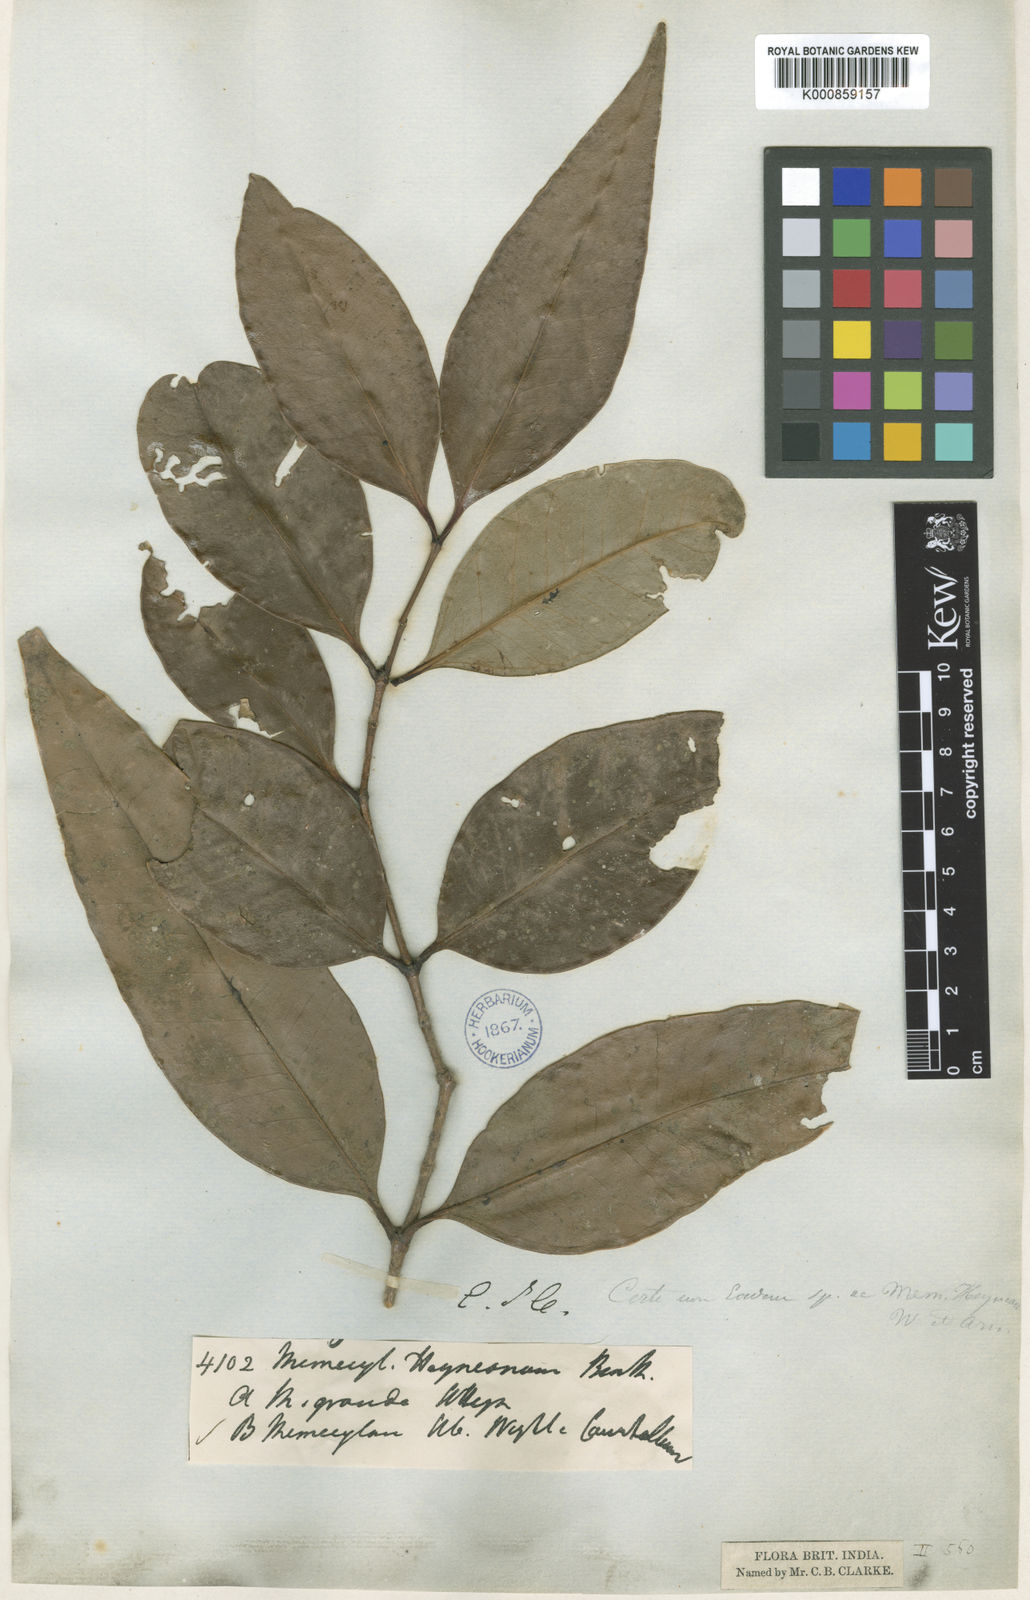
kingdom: Plantae
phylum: Tracheophyta
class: Magnoliopsida
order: Myrtales
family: Melastomataceae
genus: Memecylon
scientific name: Memecylon
